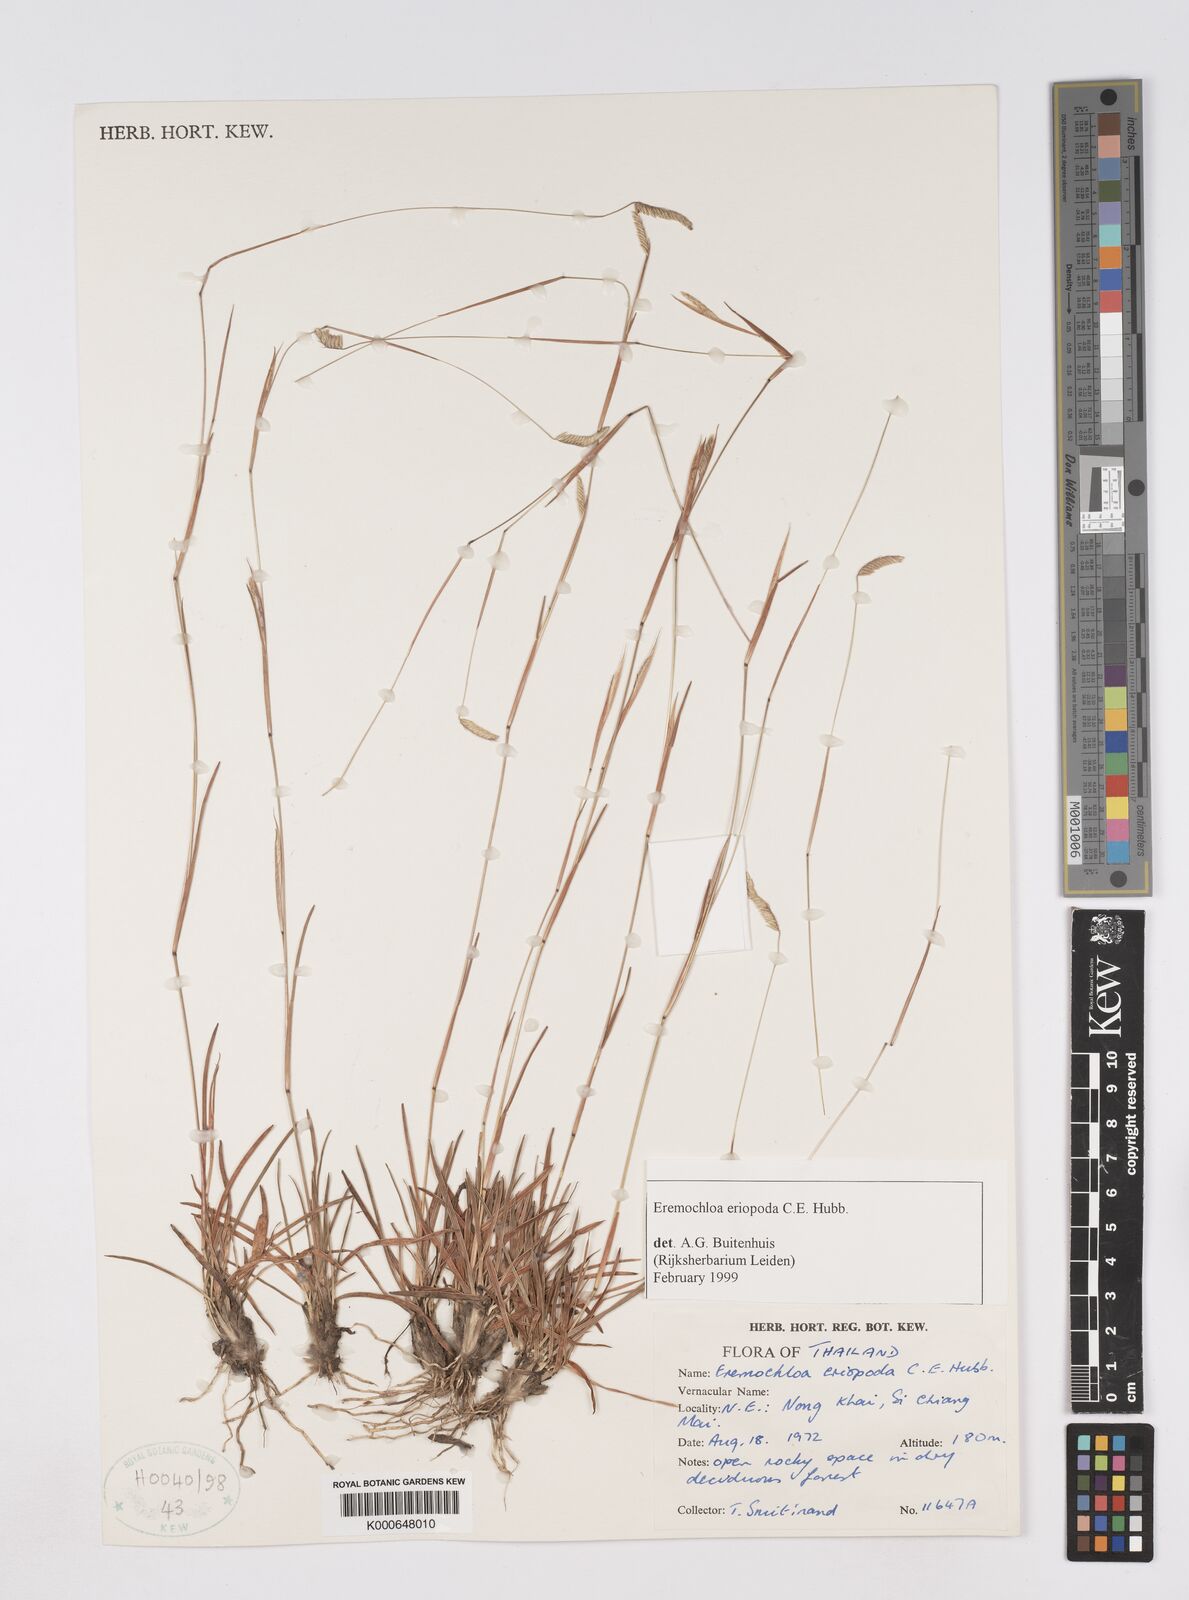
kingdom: Plantae
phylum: Tracheophyta
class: Liliopsida
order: Poales
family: Poaceae
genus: Eremochloa
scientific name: Eremochloa eriopoda
